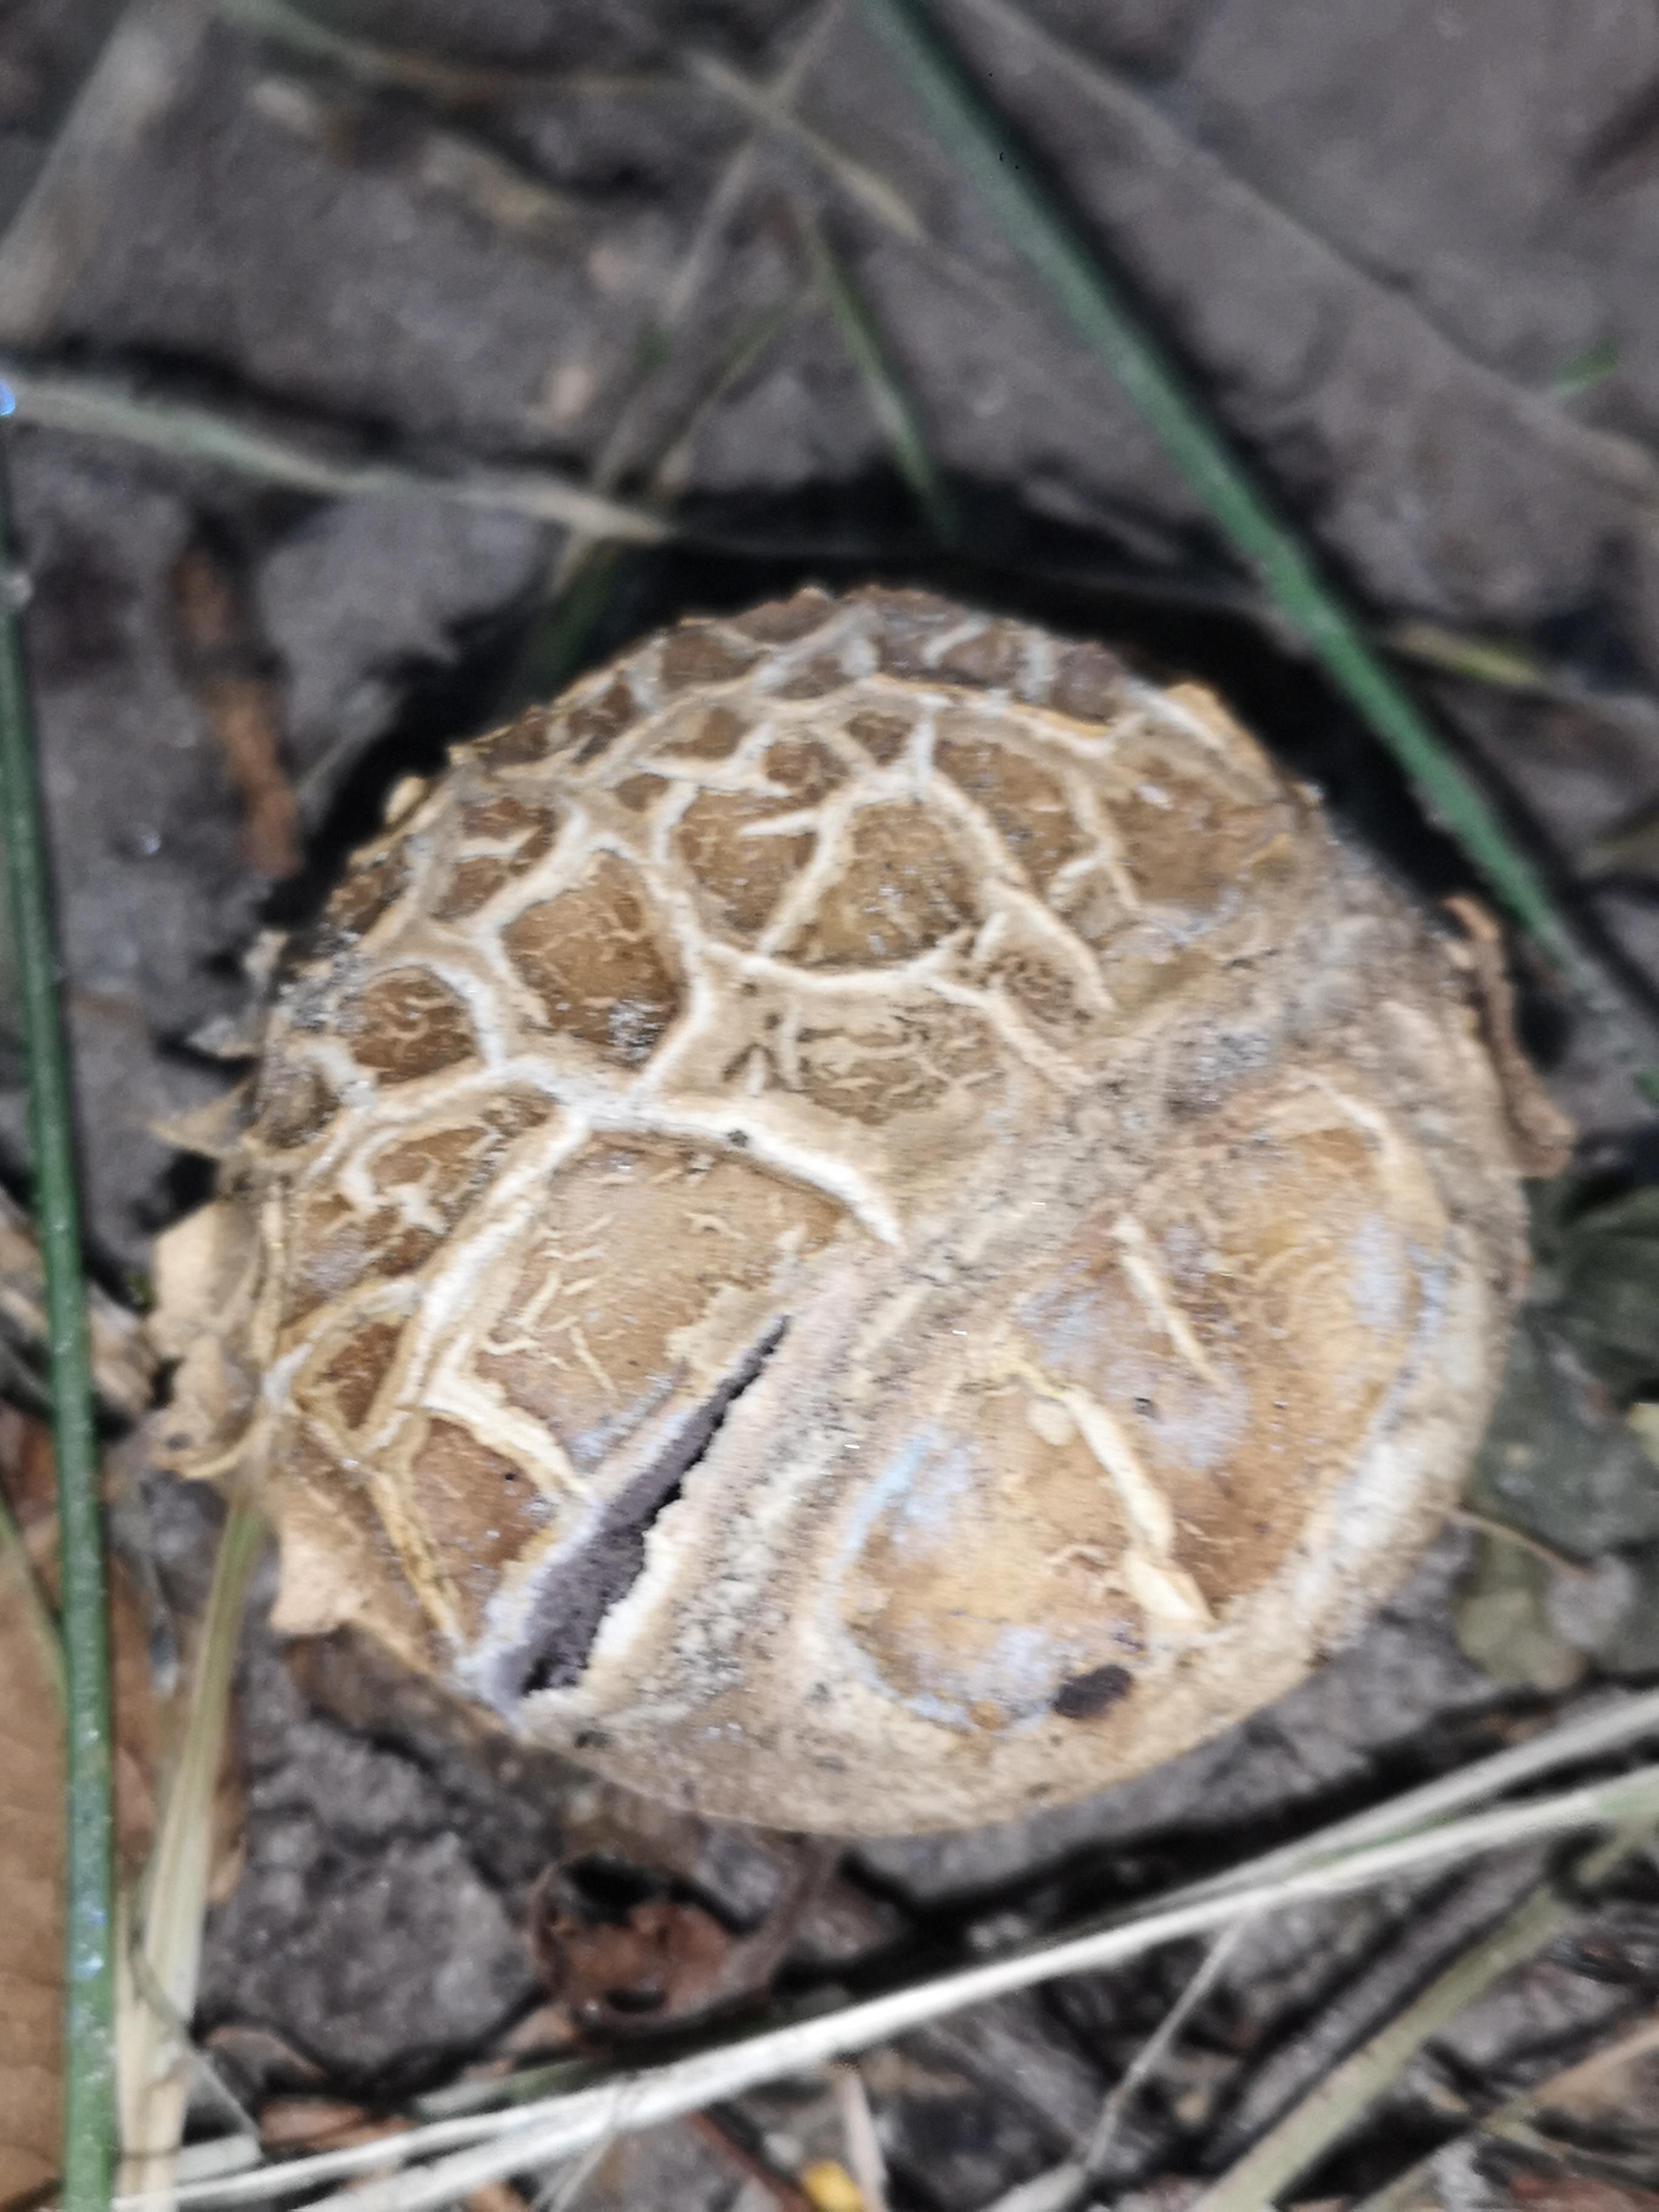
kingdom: Fungi
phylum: Basidiomycota
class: Agaricomycetes
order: Boletales
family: Sclerodermataceae
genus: Scleroderma
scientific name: Scleroderma verrucosum
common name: stilket bruskbold
